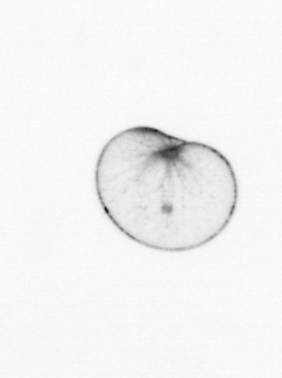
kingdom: Chromista
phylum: Myzozoa
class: Dinophyceae
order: Noctilucales
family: Noctilucaceae
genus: Noctiluca
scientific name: Noctiluca scintillans
